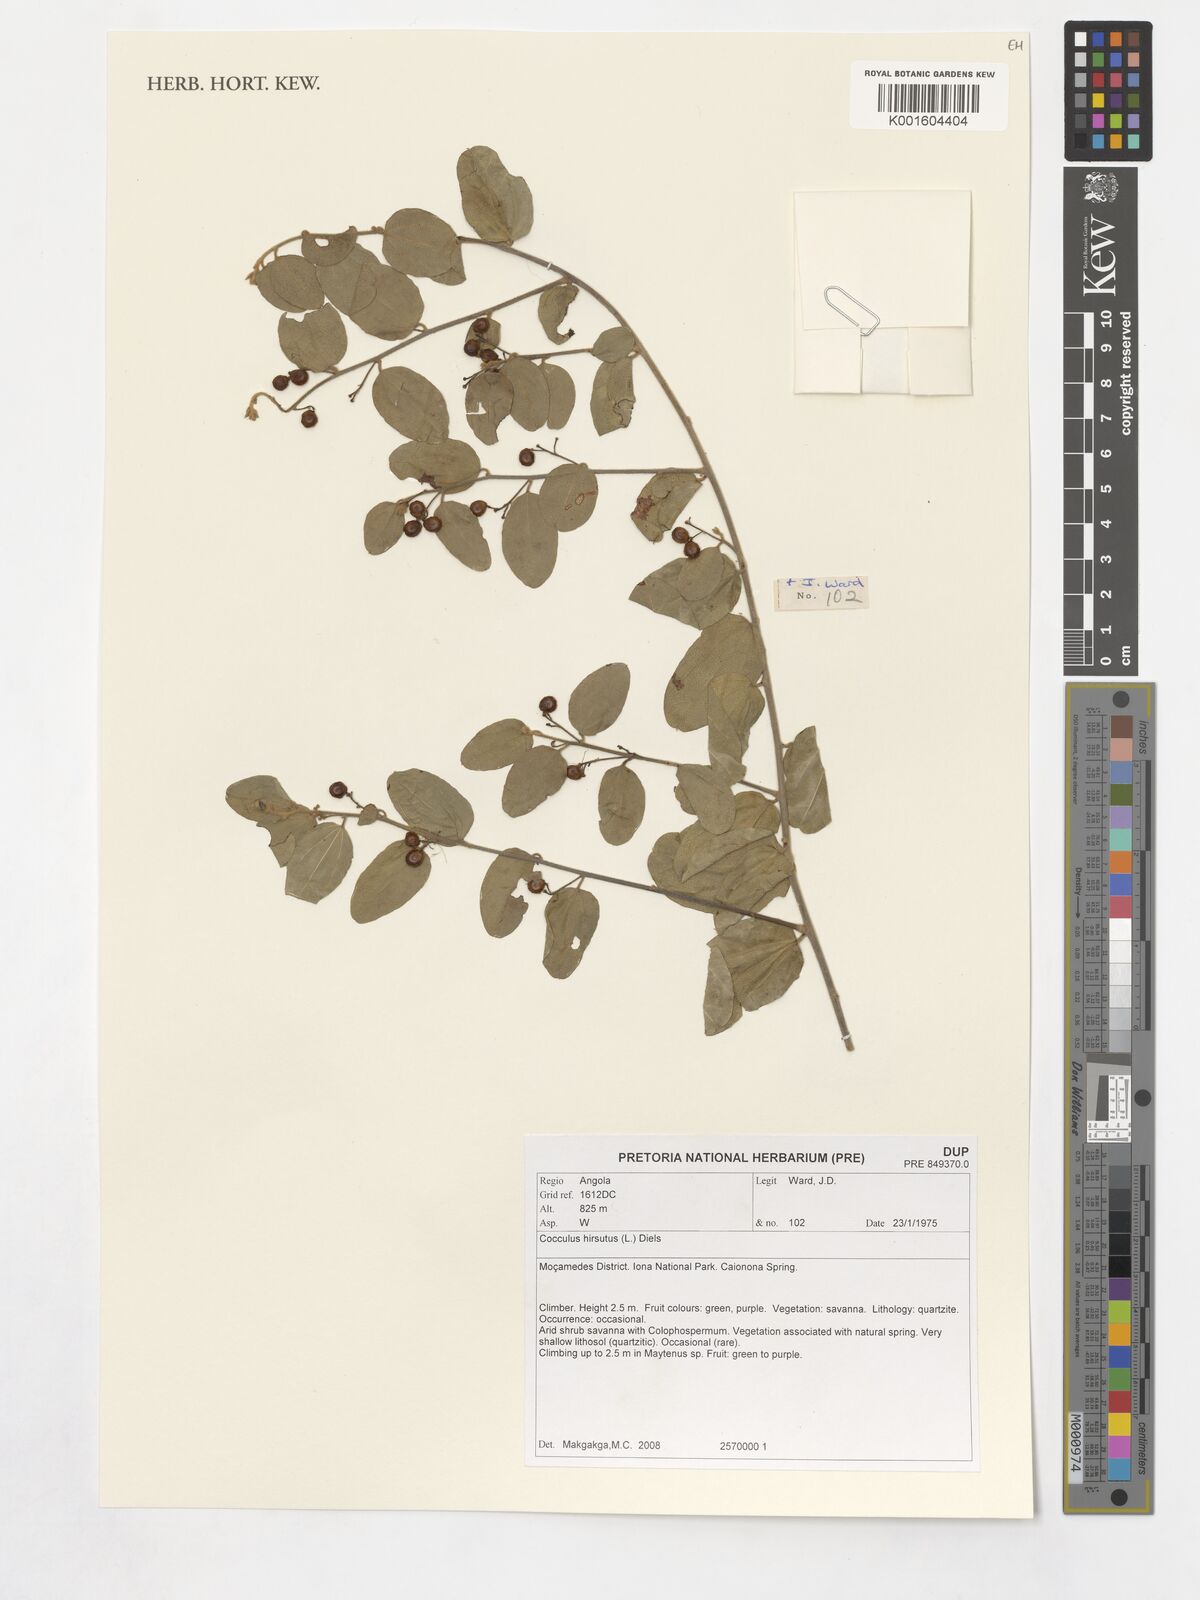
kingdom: Plantae
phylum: Tracheophyta
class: Magnoliopsida
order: Ranunculales
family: Menispermaceae
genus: Cocculus
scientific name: Cocculus hirsutus
